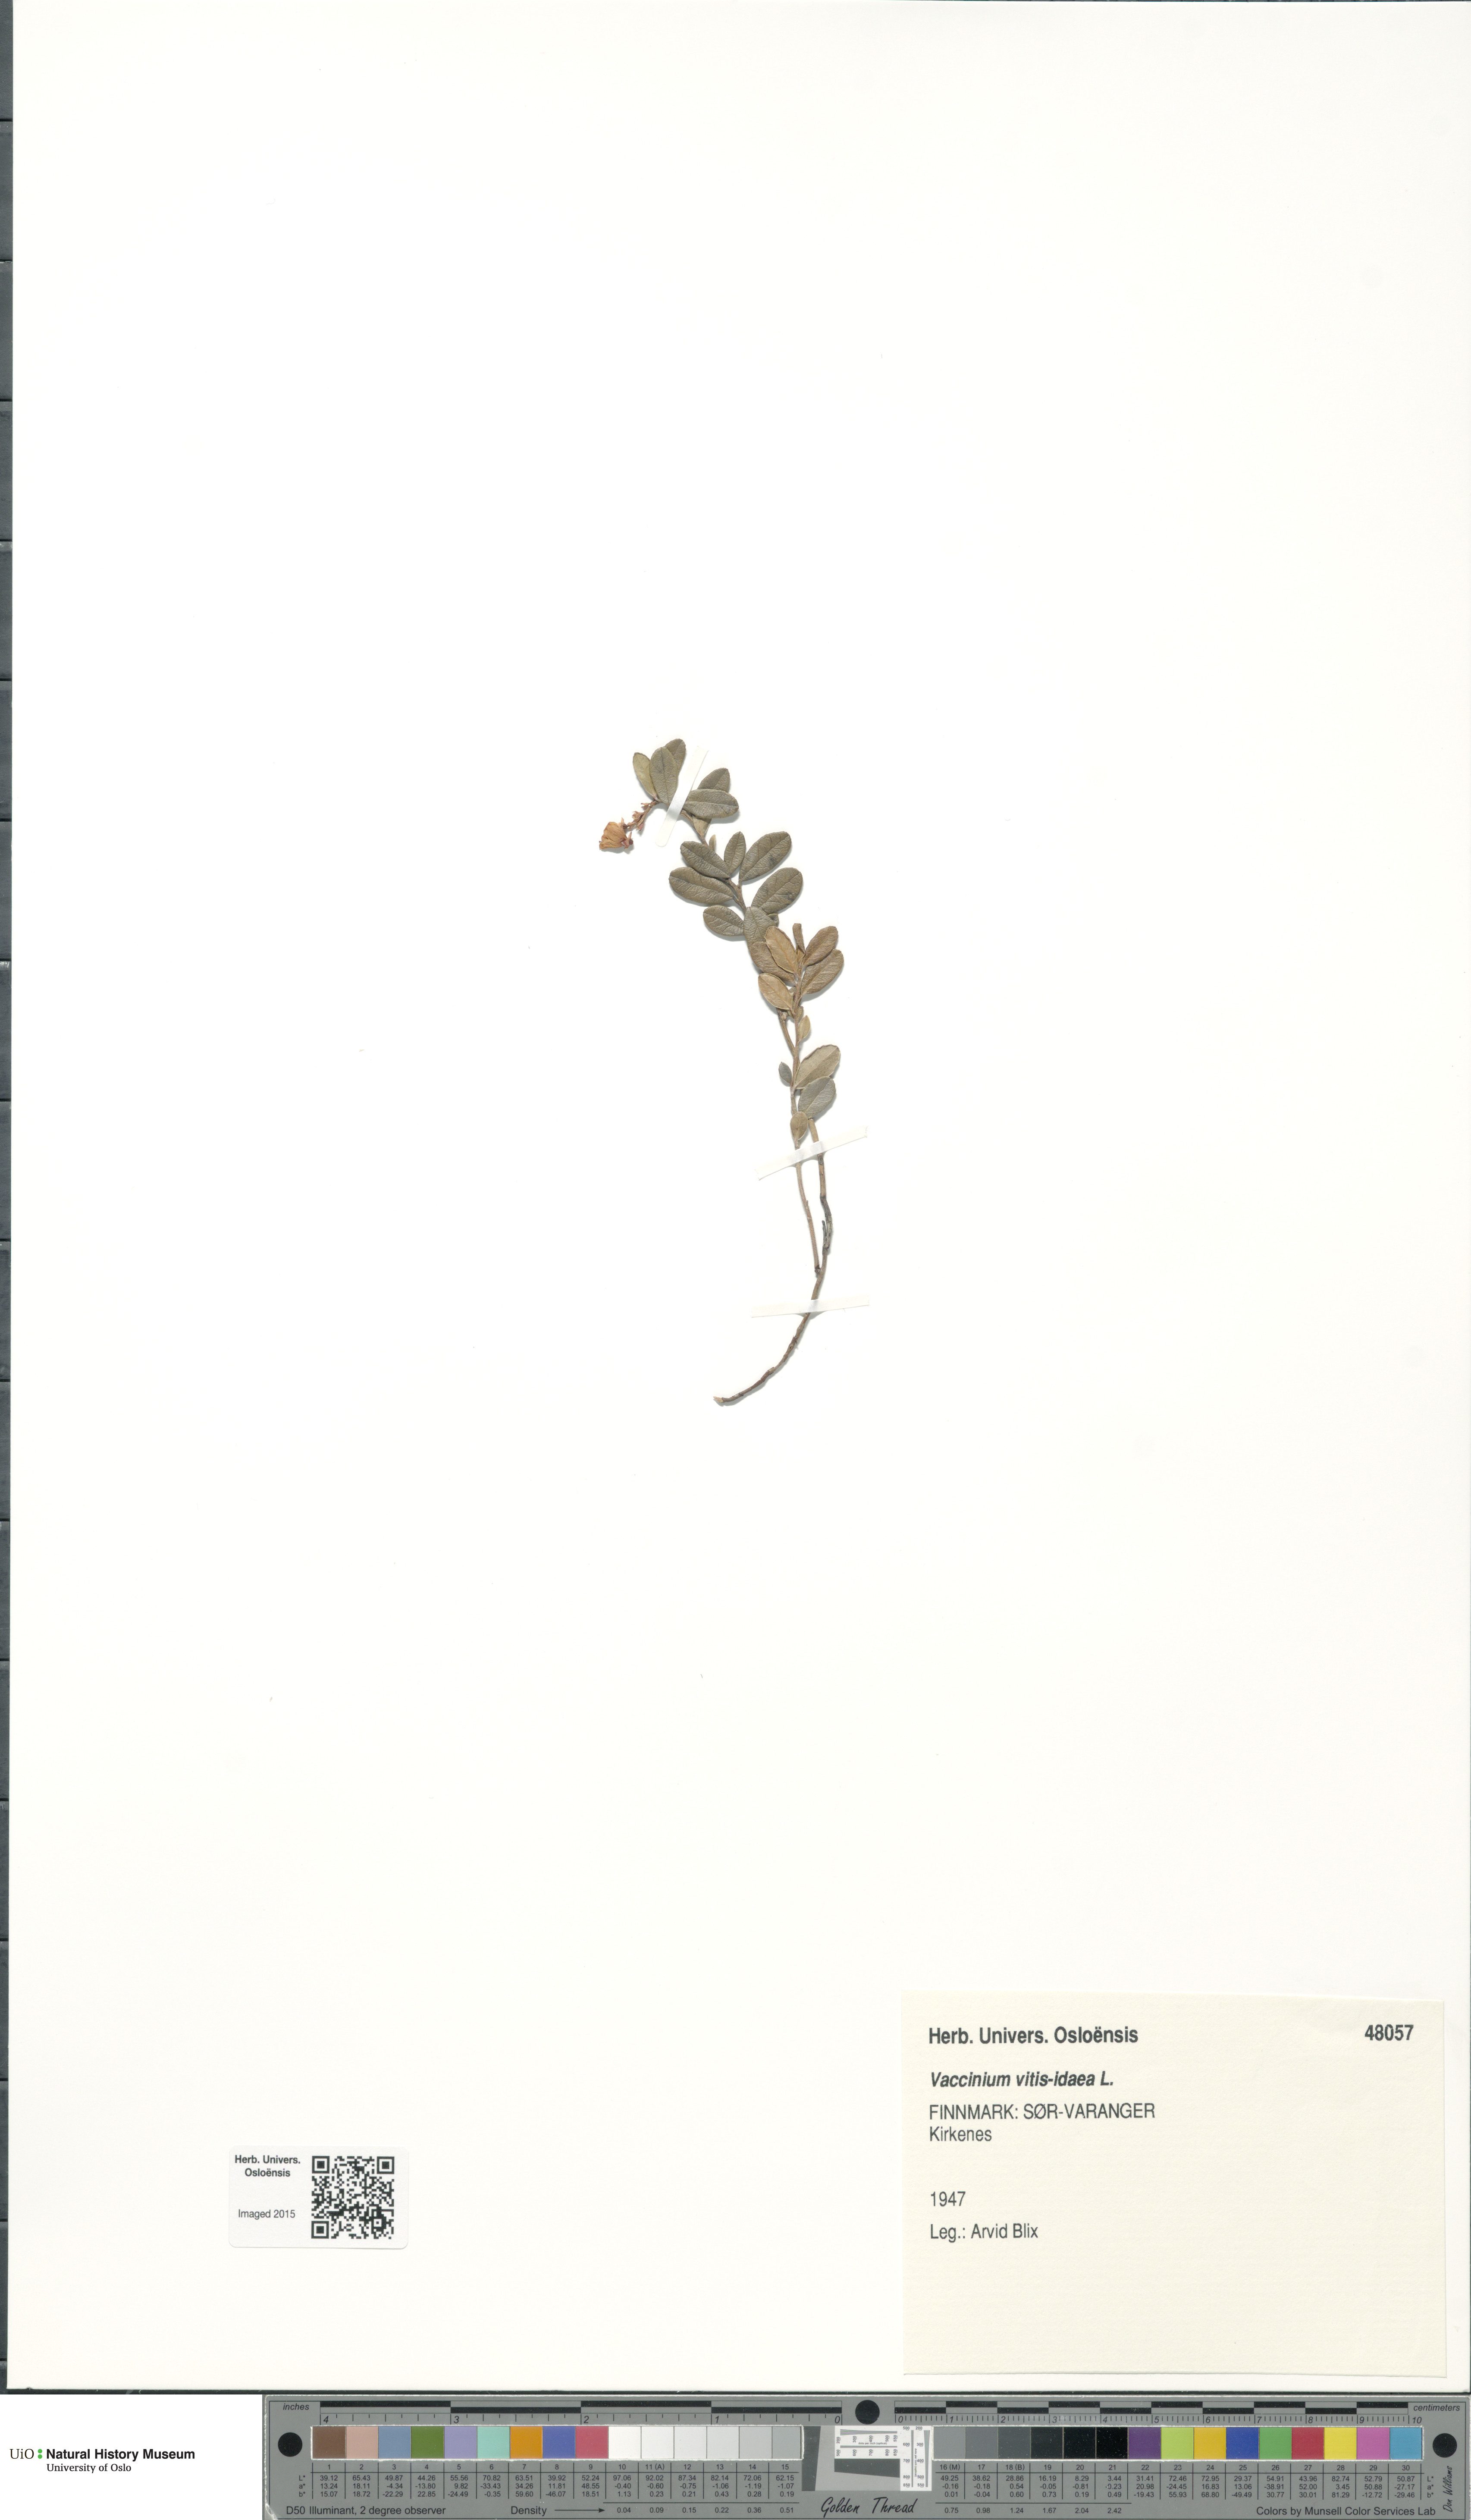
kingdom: Plantae
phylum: Tracheophyta
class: Magnoliopsida
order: Ericales
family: Ericaceae
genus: Vaccinium
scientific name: Vaccinium vitis-idaea
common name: Cowberry
